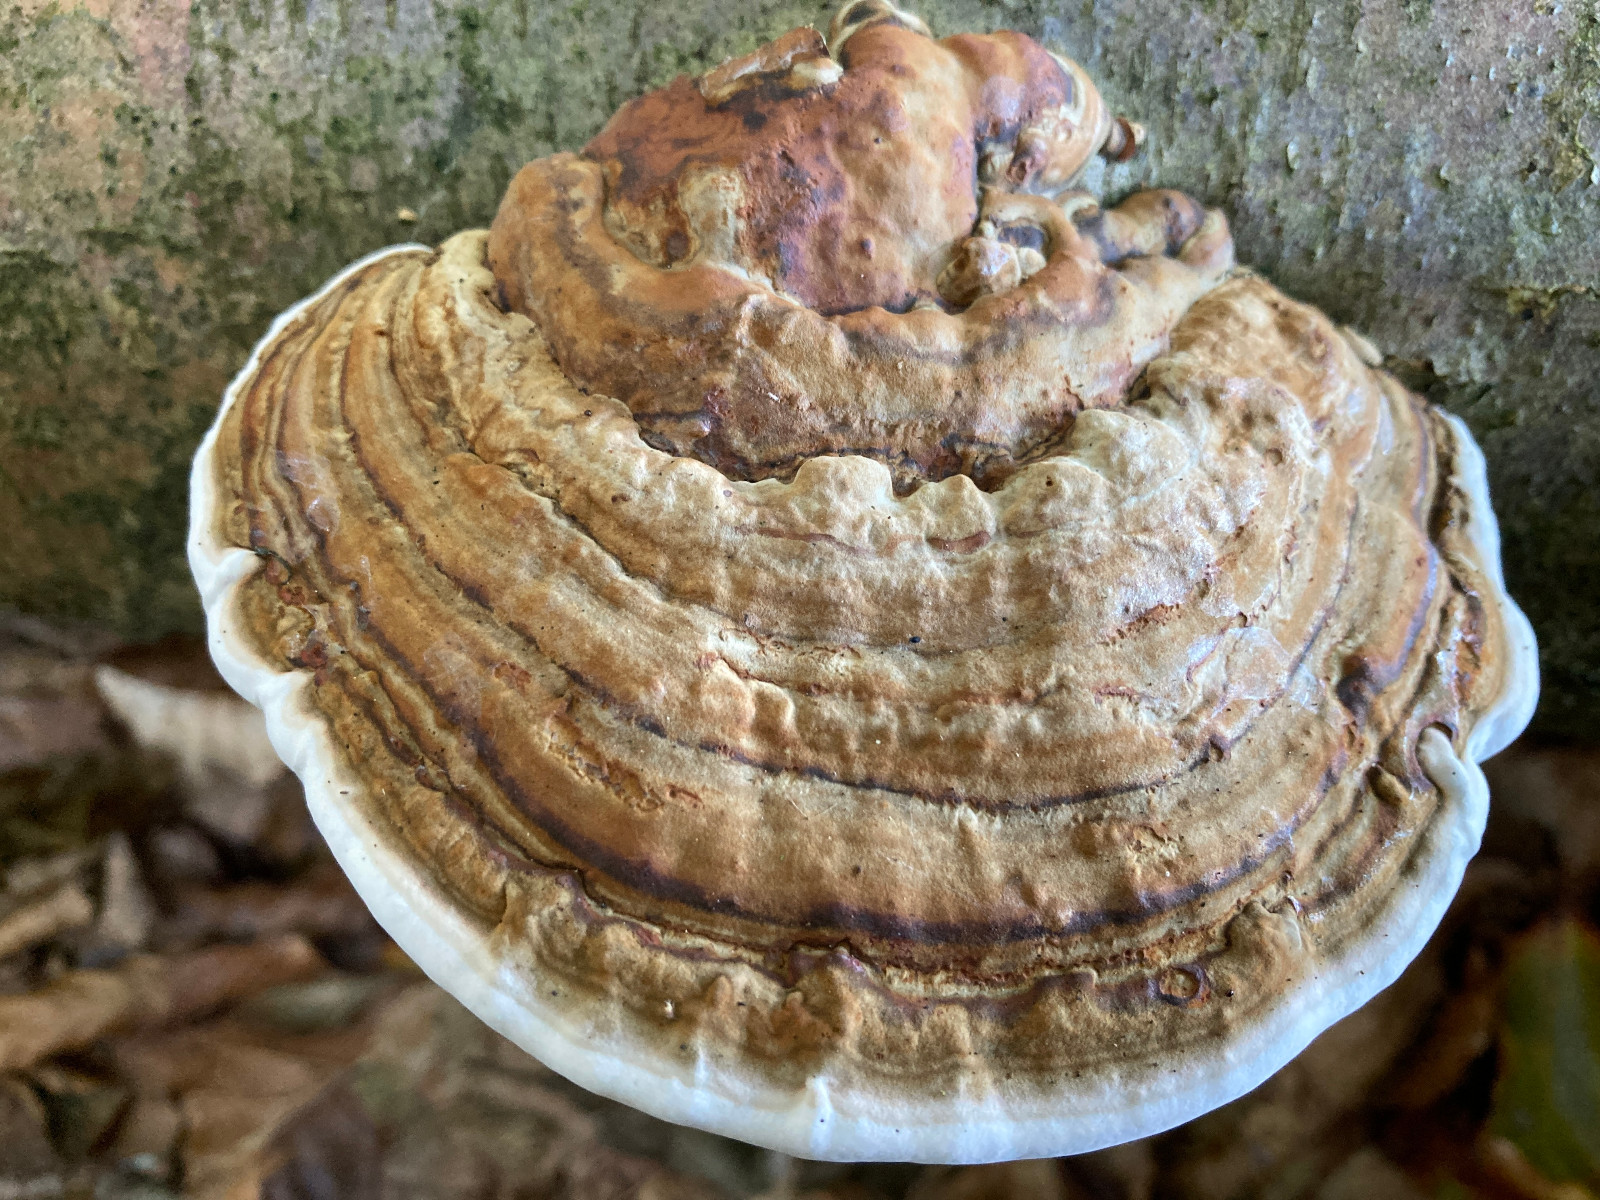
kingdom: Fungi
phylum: Basidiomycota
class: Agaricomycetes
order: Polyporales
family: Polyporaceae
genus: Fomes
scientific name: Fomes fomentarius
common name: tøndersvamp
